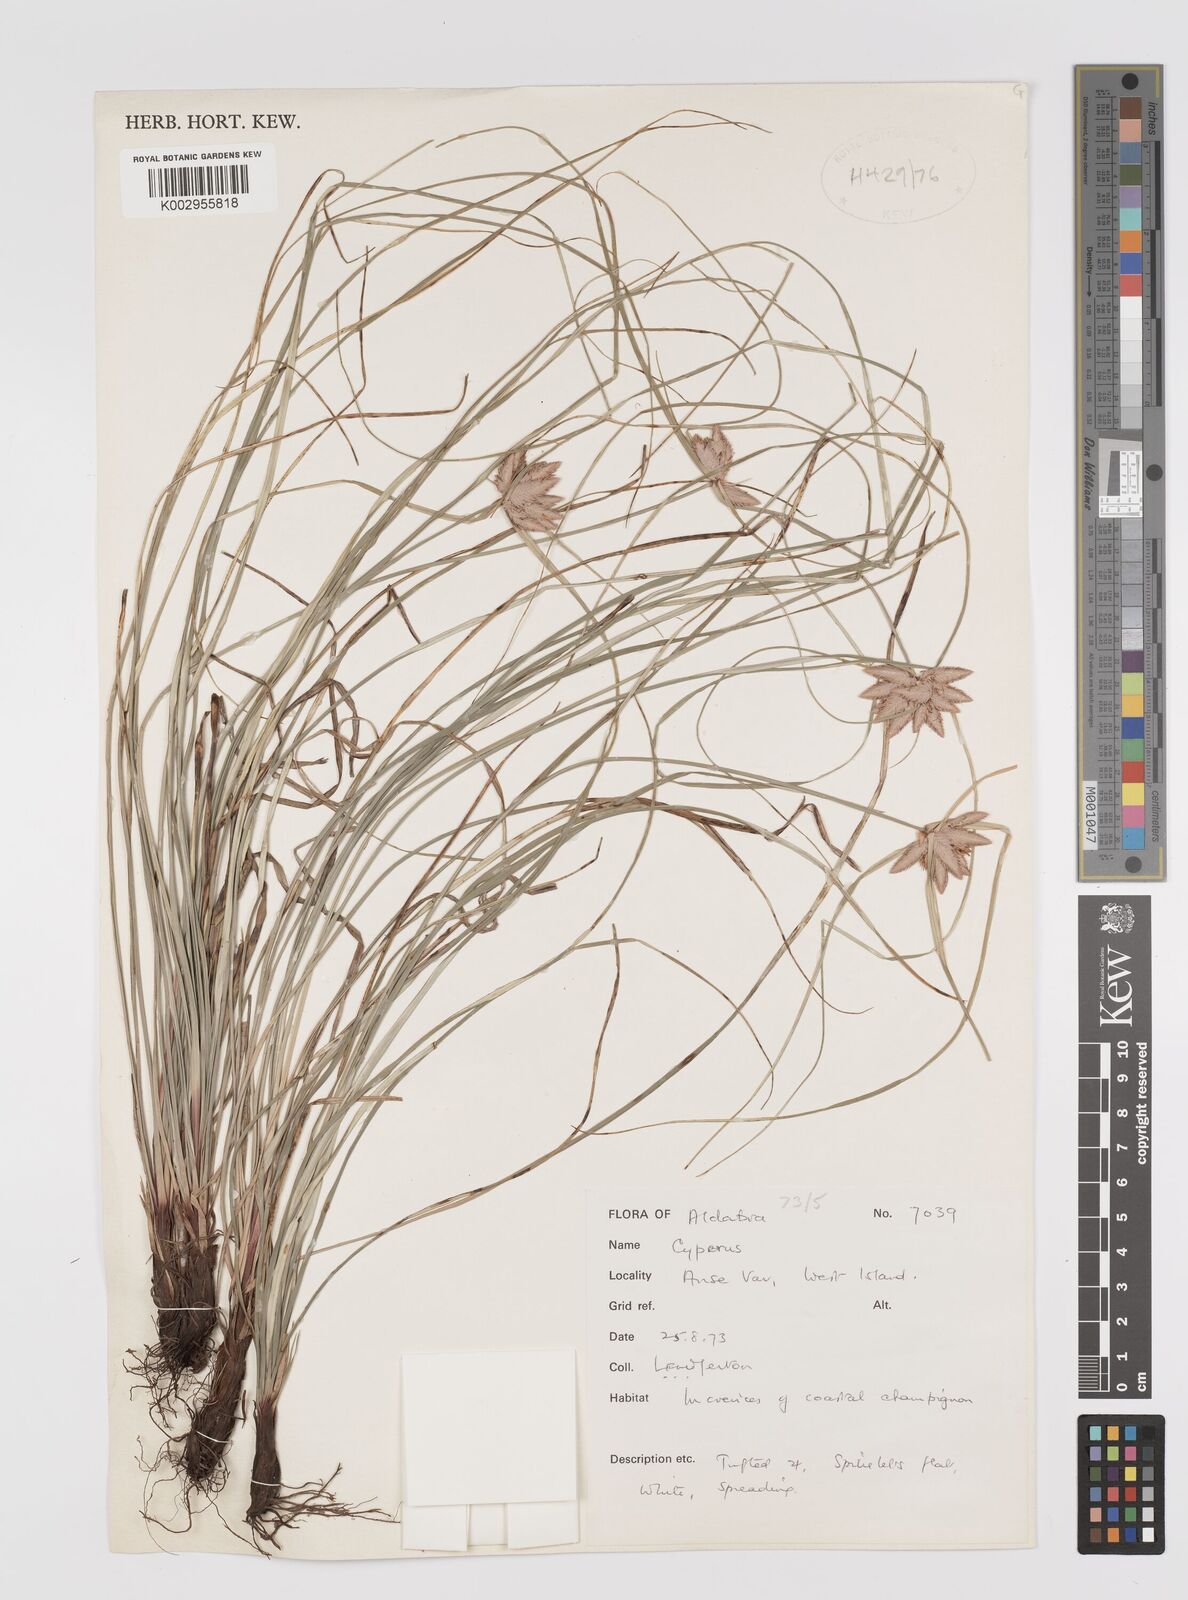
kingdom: Plantae
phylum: Tracheophyta
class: Liliopsida
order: Poales
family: Cyperaceae
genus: Cyperus
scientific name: Cyperus niveus
